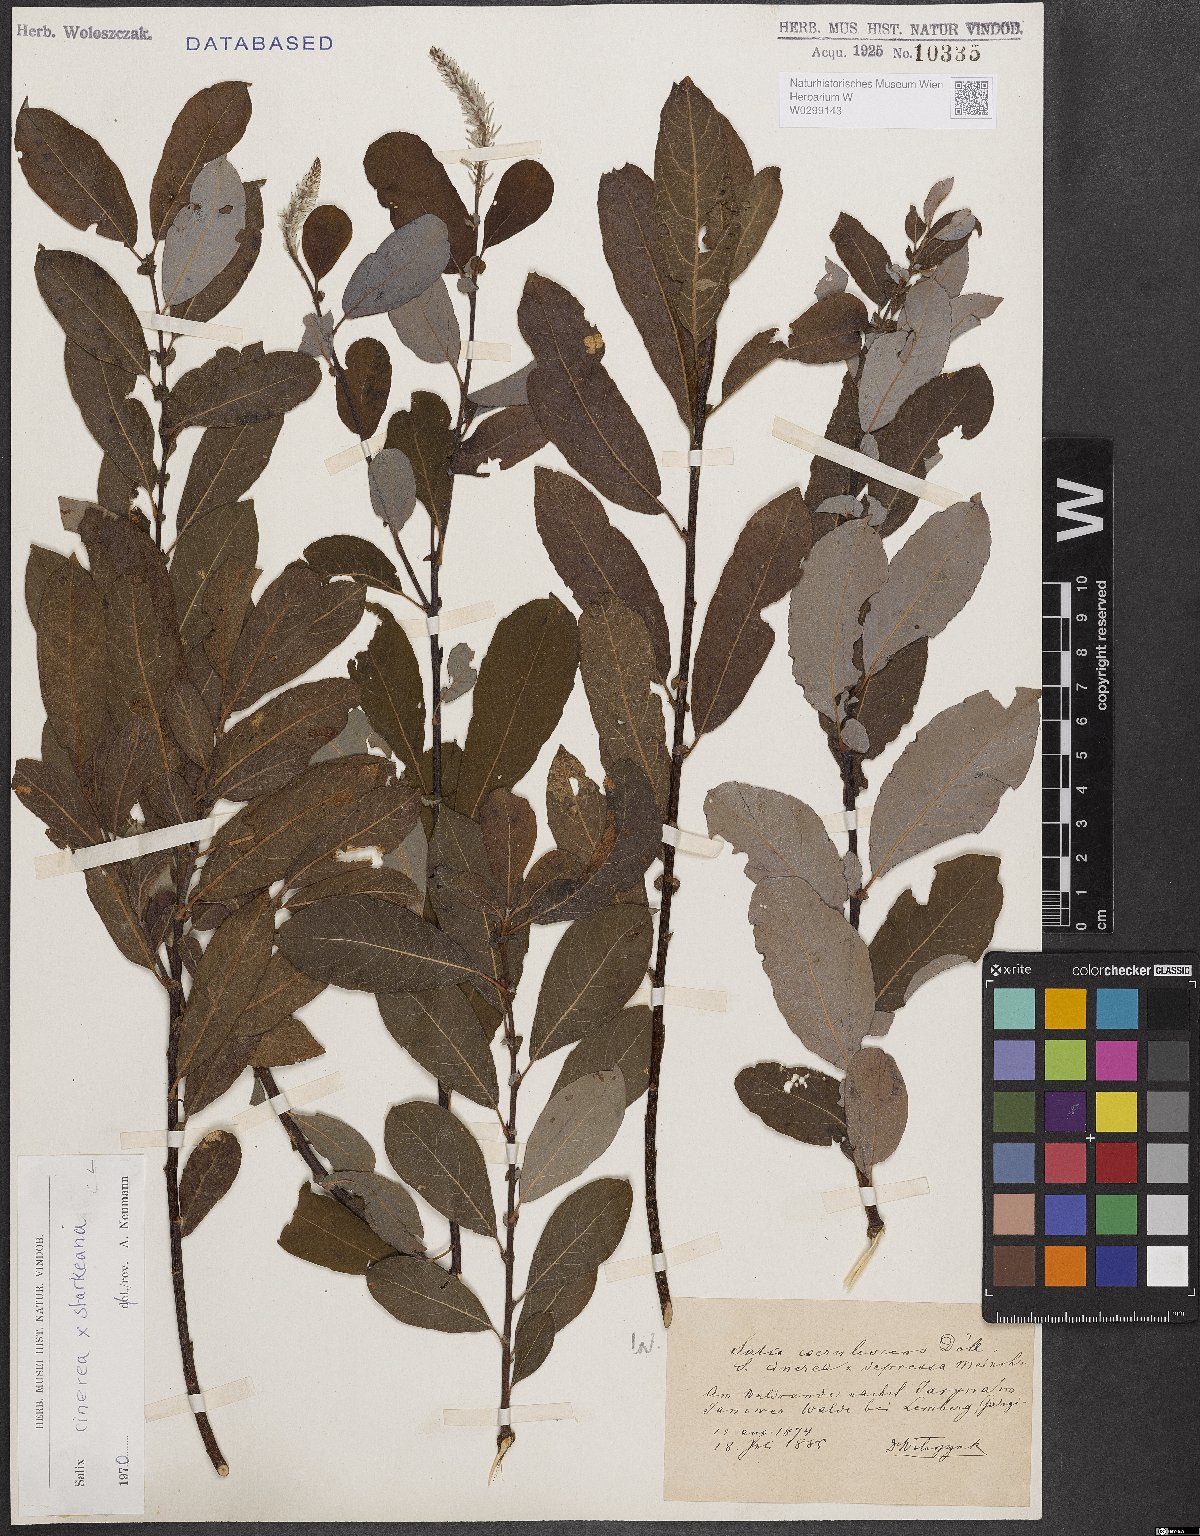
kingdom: Plantae
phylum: Tracheophyta
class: Magnoliopsida
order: Malpighiales
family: Salicaceae
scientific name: Salicaceae
